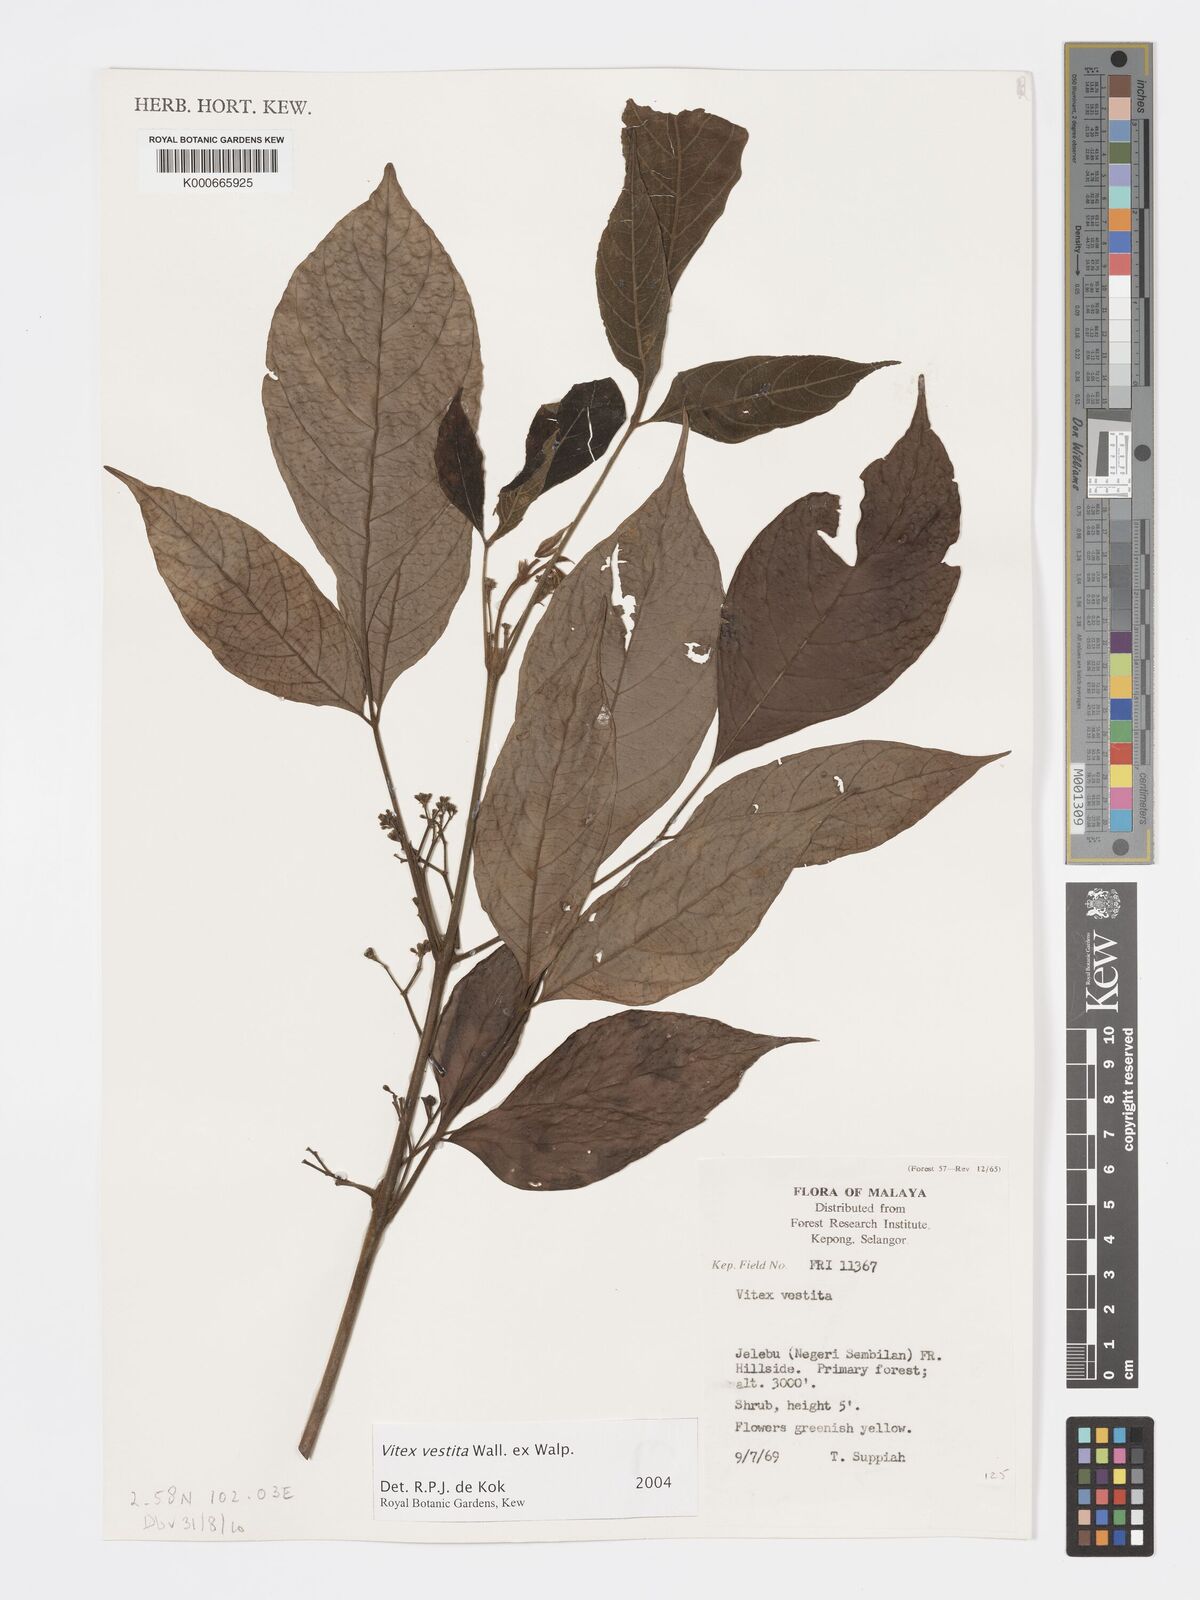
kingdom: Plantae
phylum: Tracheophyta
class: Magnoliopsida
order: Lamiales
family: Lamiaceae
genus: Vitex
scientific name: Vitex vestita
